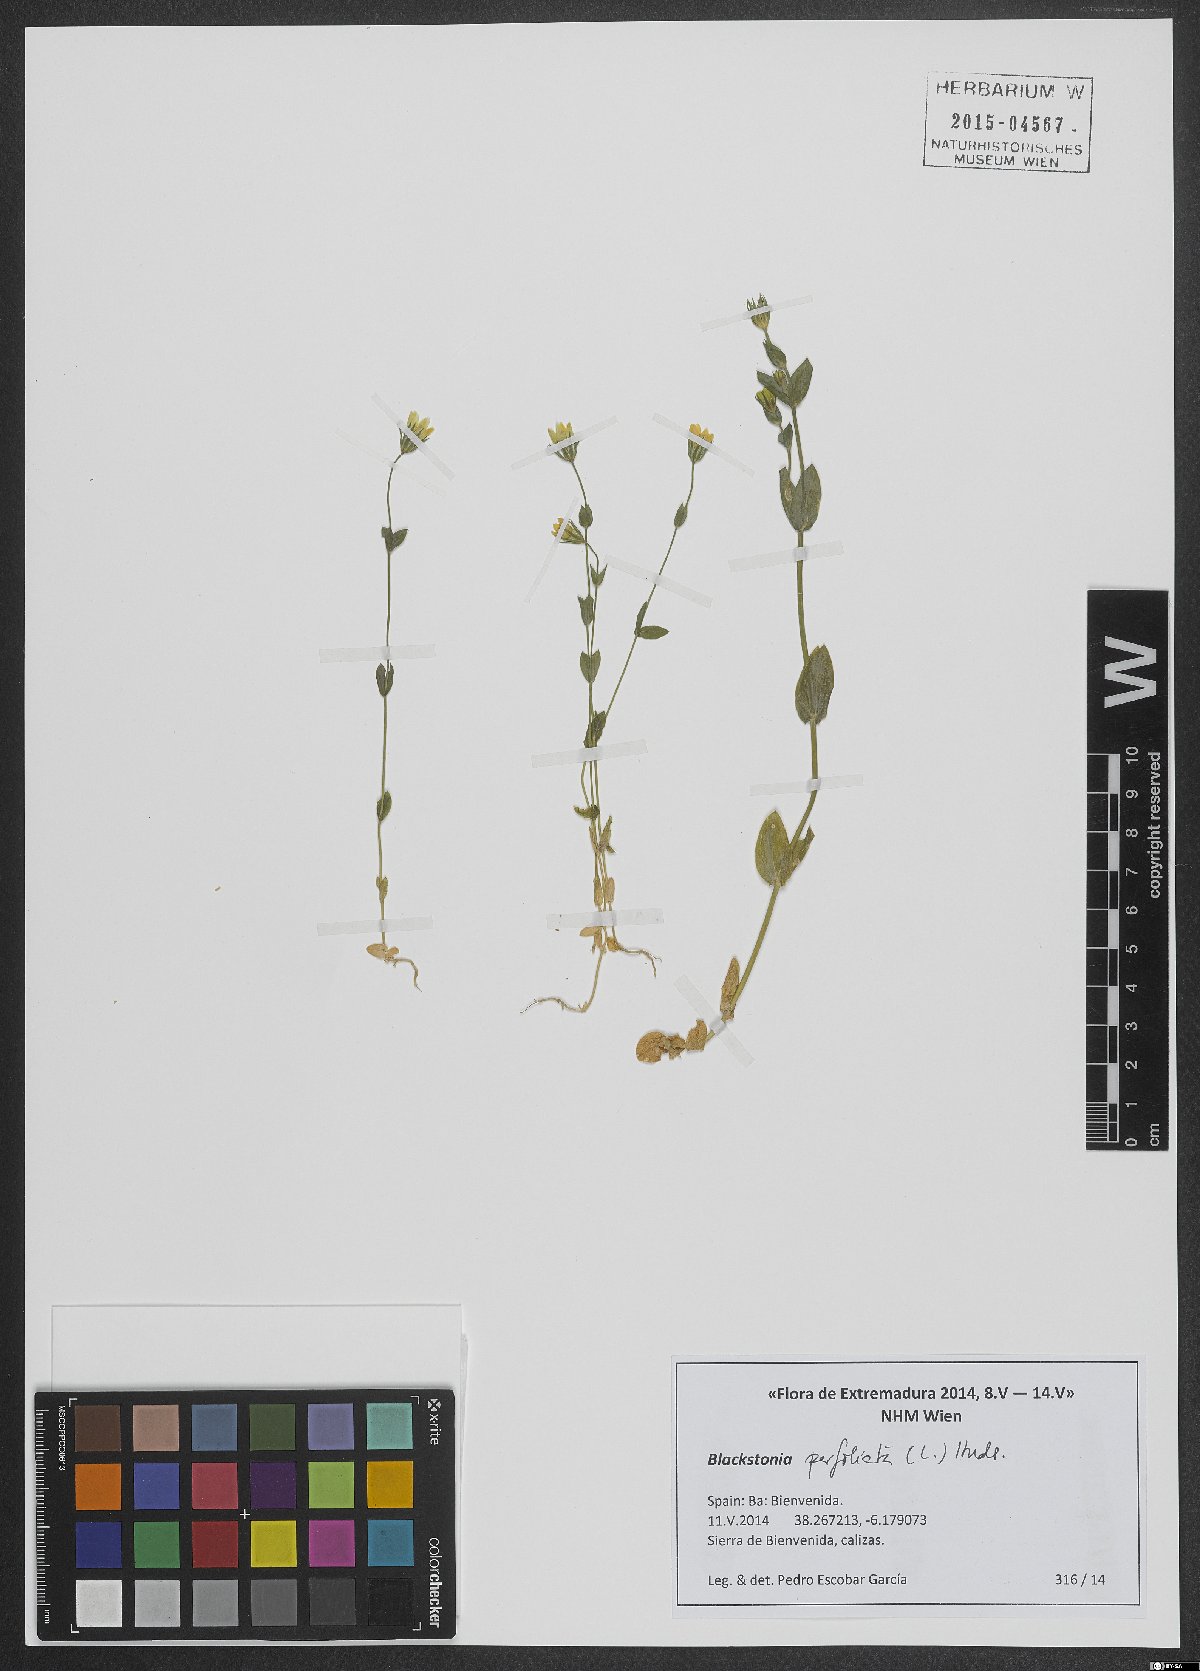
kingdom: Plantae
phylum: Tracheophyta
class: Magnoliopsida
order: Gentianales
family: Gentianaceae
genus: Blackstonia
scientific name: Blackstonia perfoliata
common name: Yellow-wort
